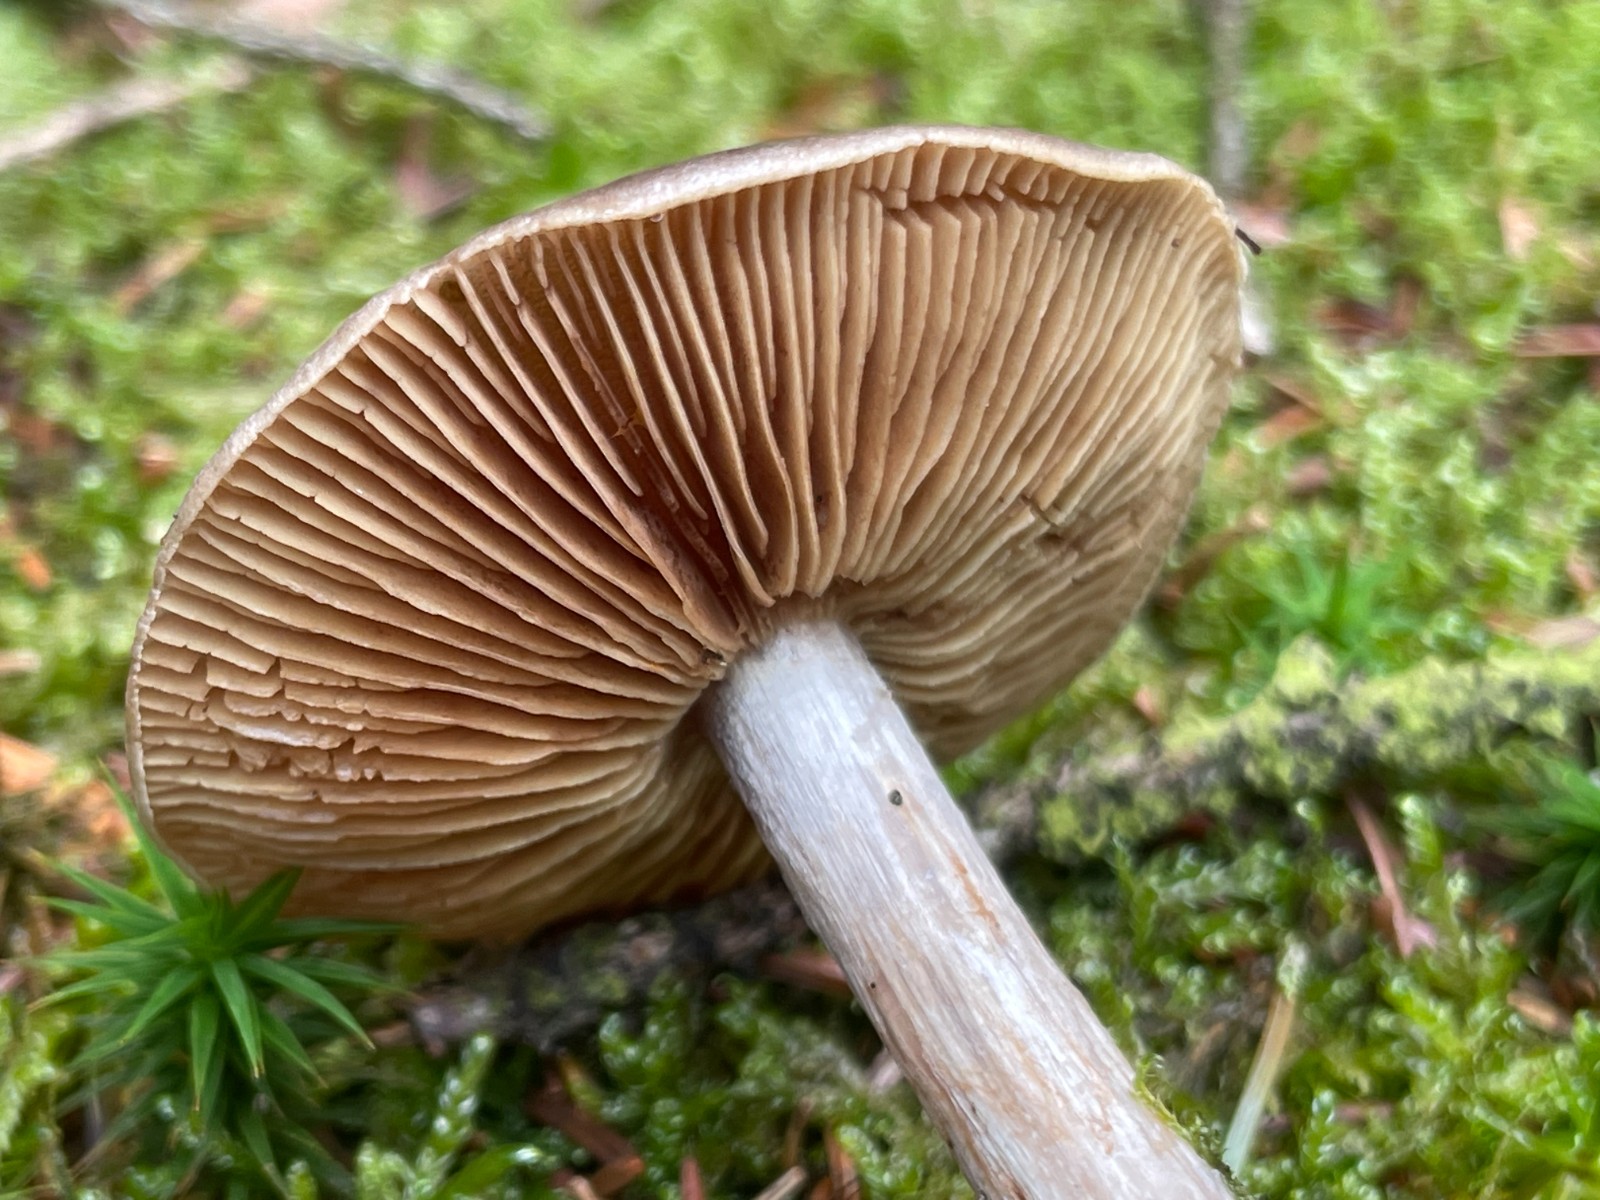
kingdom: Fungi
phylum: Basidiomycota
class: Agaricomycetes
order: Agaricales
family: Cortinariaceae
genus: Thaxterogaster
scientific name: Thaxterogaster scaurus
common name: sump-slørhat
